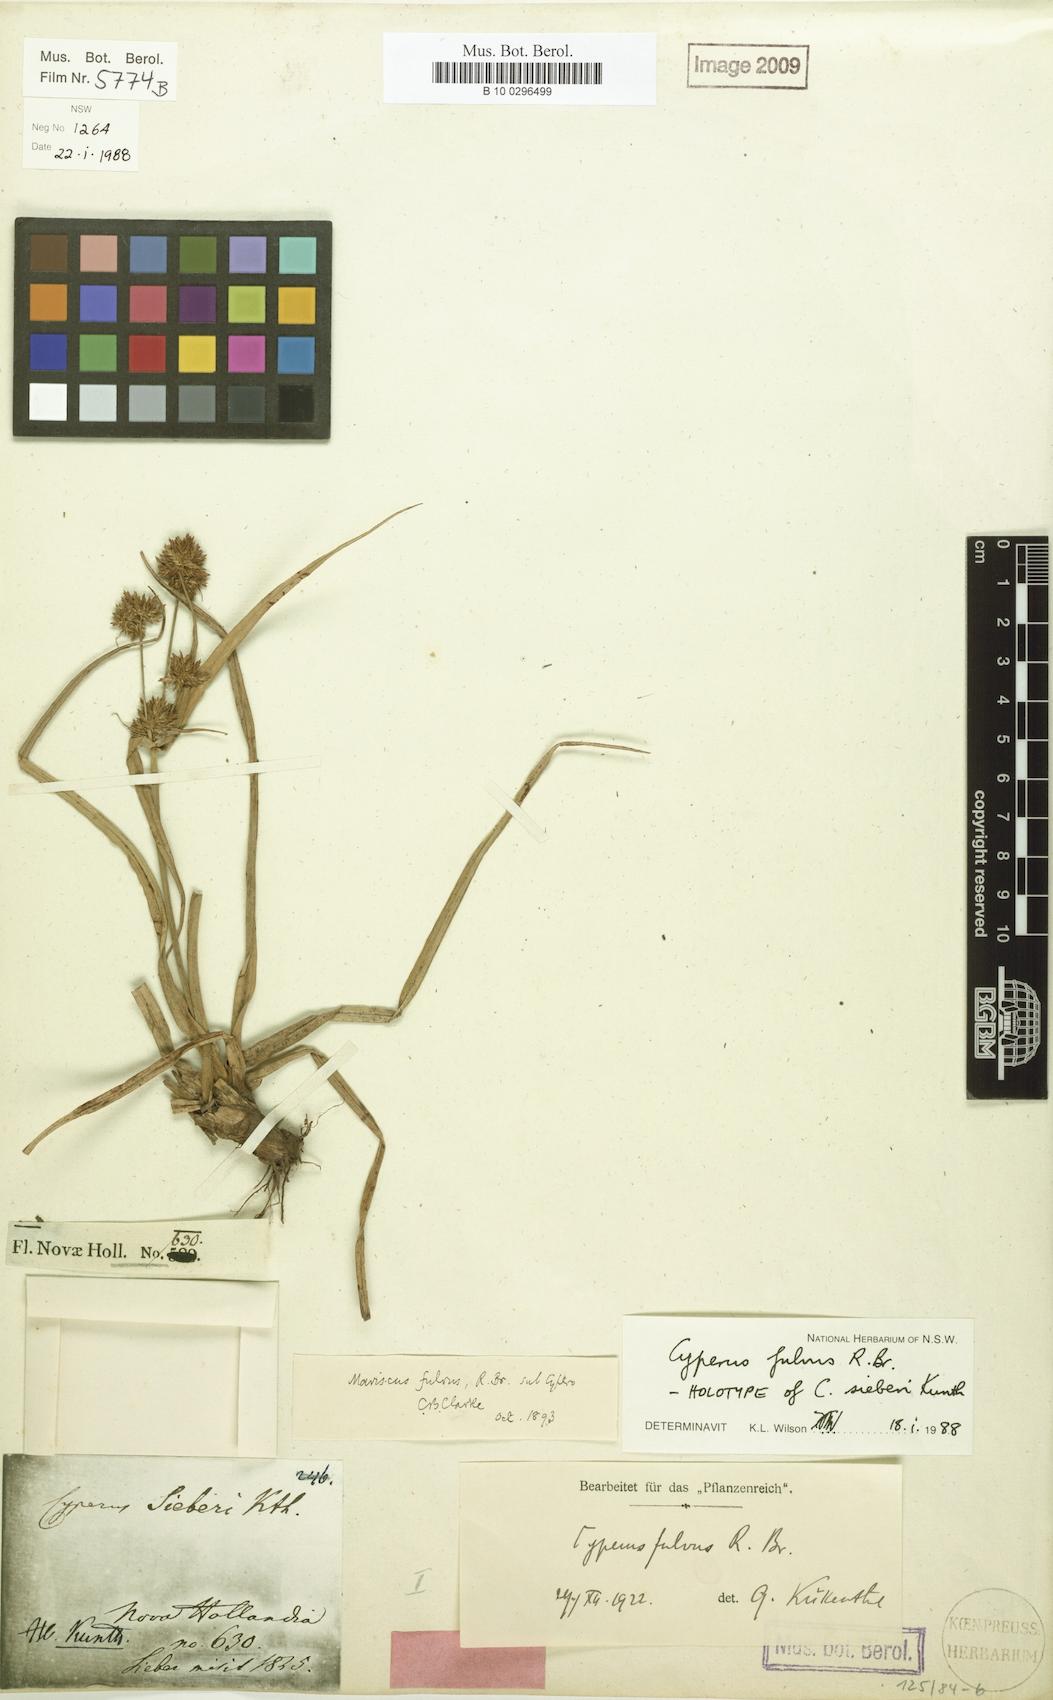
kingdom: Plantae
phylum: Tracheophyta
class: Liliopsida
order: Poales
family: Cyperaceae
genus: Cyperus
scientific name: Cyperus fulvus
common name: Sticky sedge
